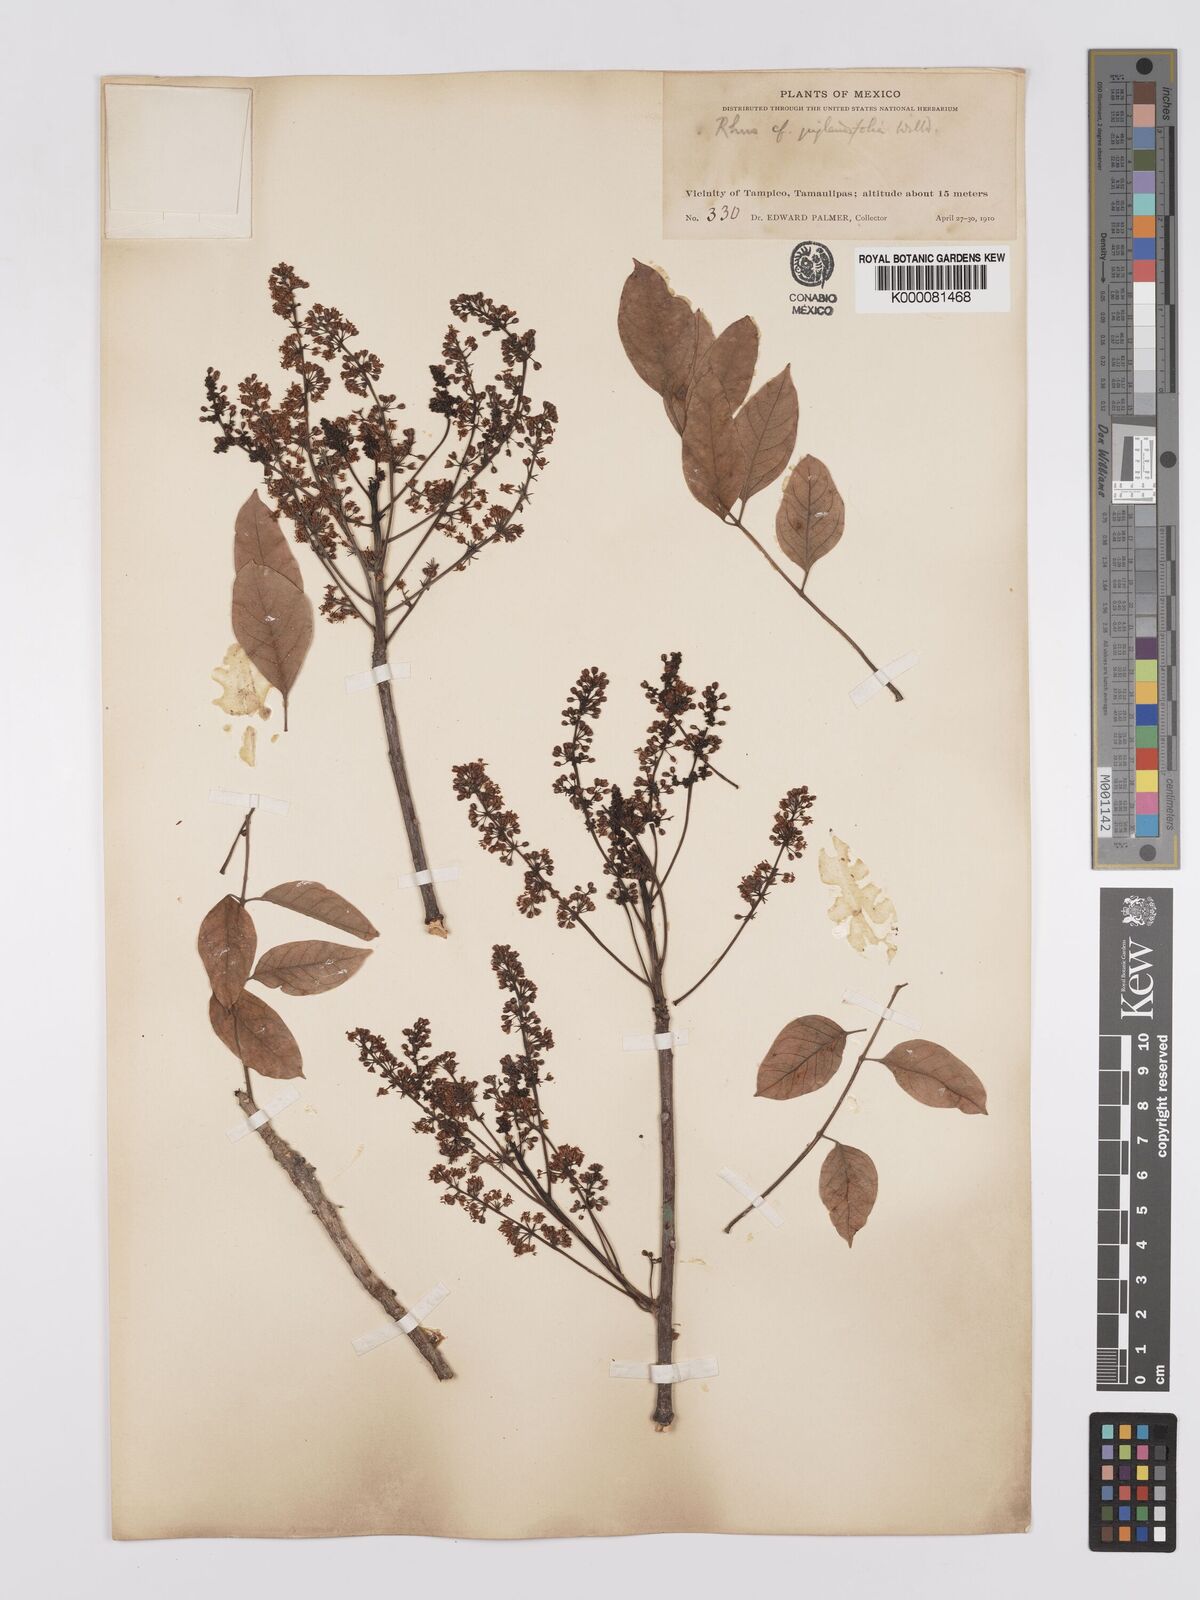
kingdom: Plantae
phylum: Tracheophyta
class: Magnoliopsida
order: Sapindales
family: Anacardiaceae
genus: Rhus
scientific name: Rhus
